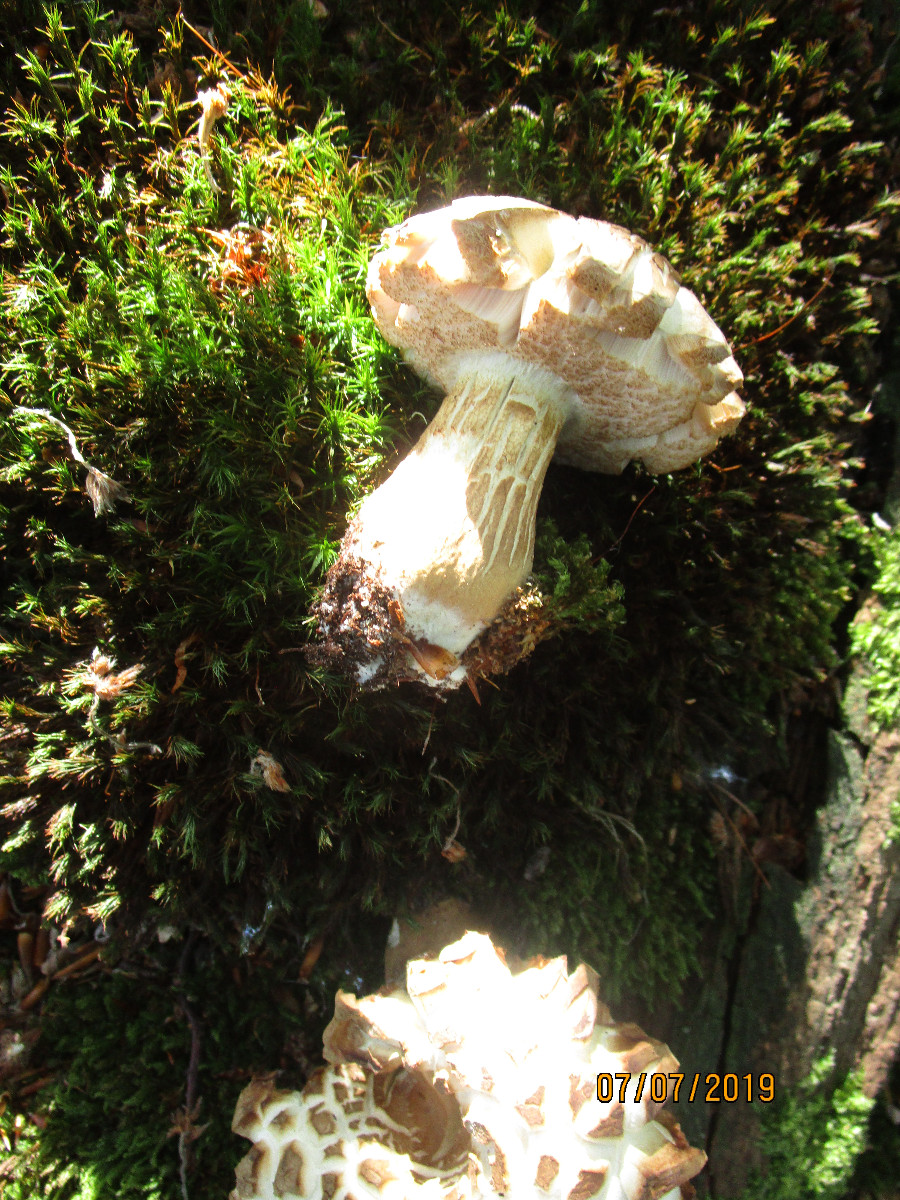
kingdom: Fungi
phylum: Basidiomycota
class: Agaricomycetes
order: Boletales
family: Boletaceae
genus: Tylopilus
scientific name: Tylopilus felleus
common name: galderørhat
